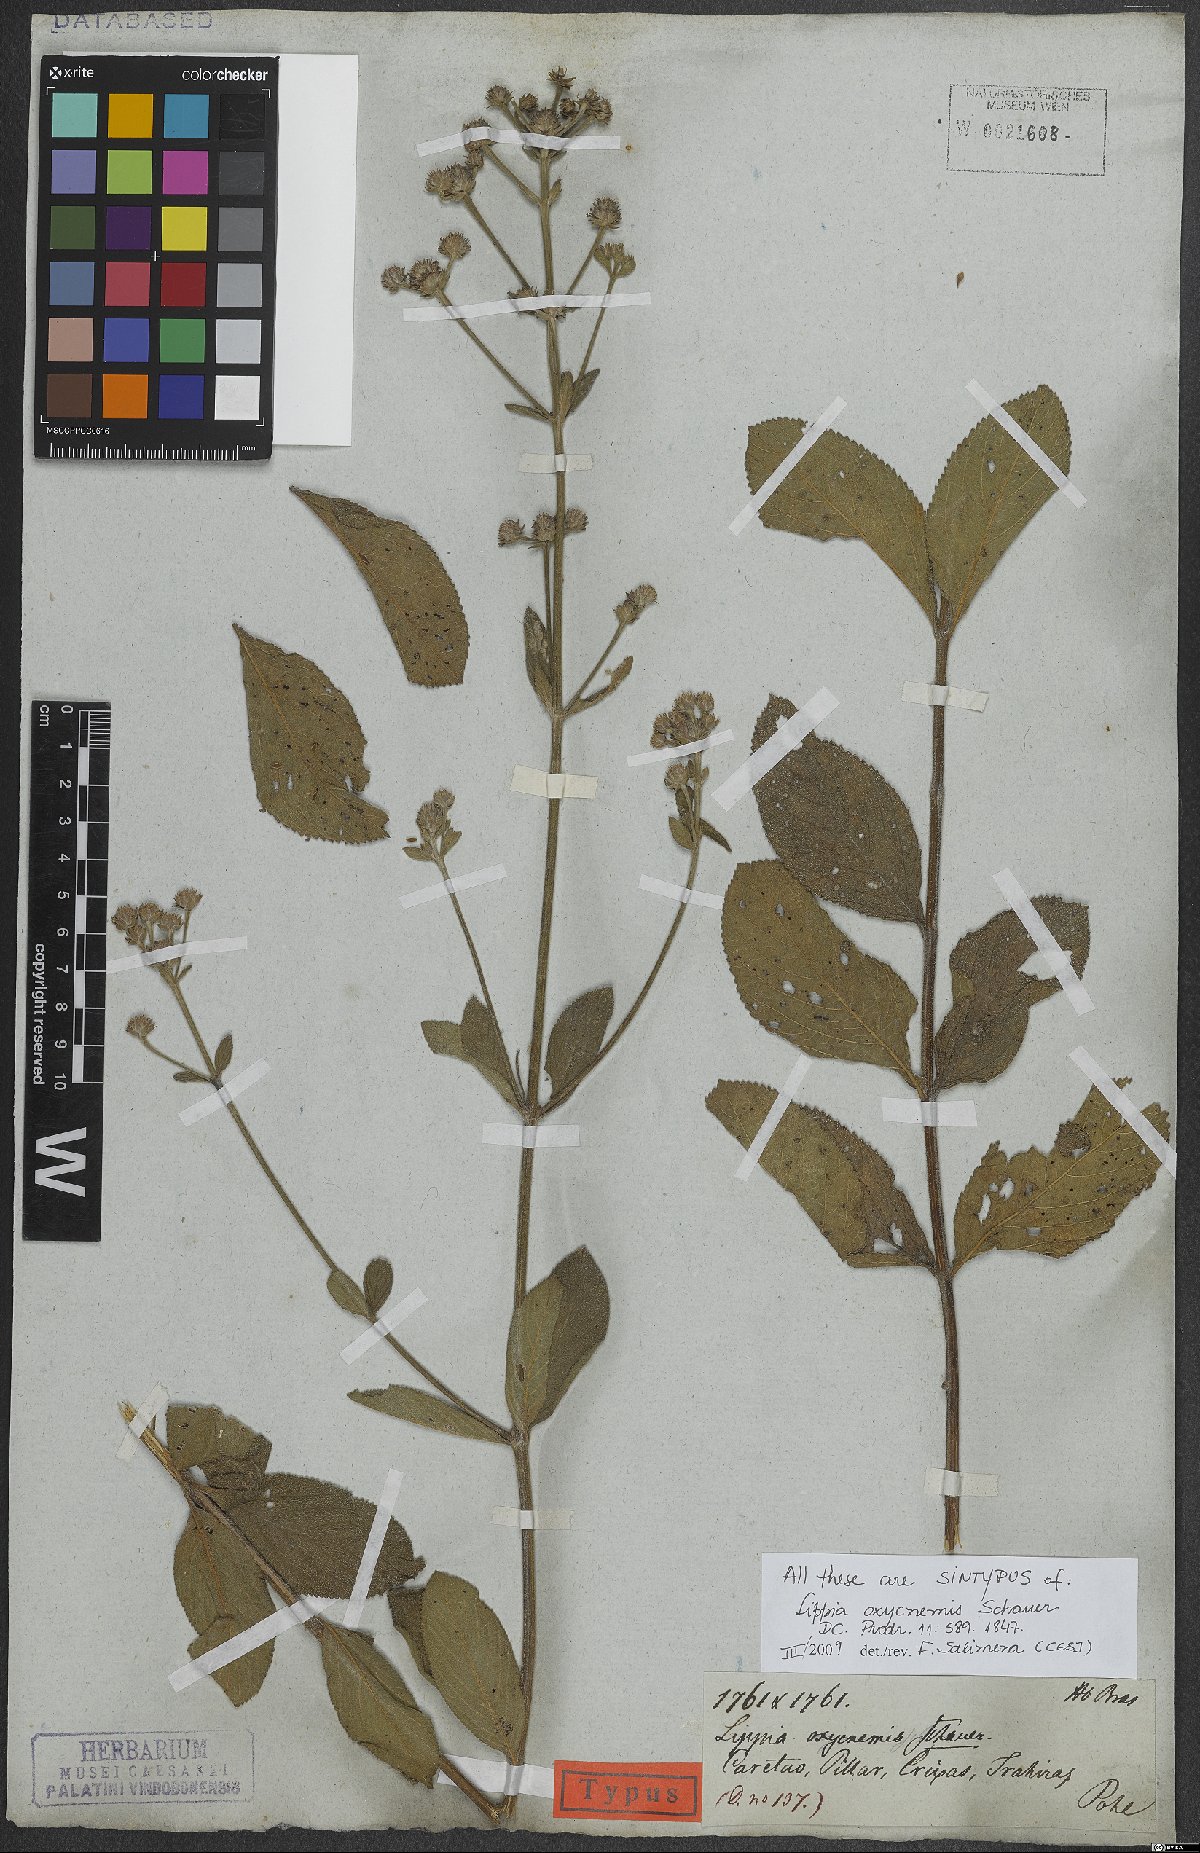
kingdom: Plantae
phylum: Tracheophyta
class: Magnoliopsida
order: Lamiales
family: Verbenaceae
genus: Lippia
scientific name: Lippia oxycnemis
